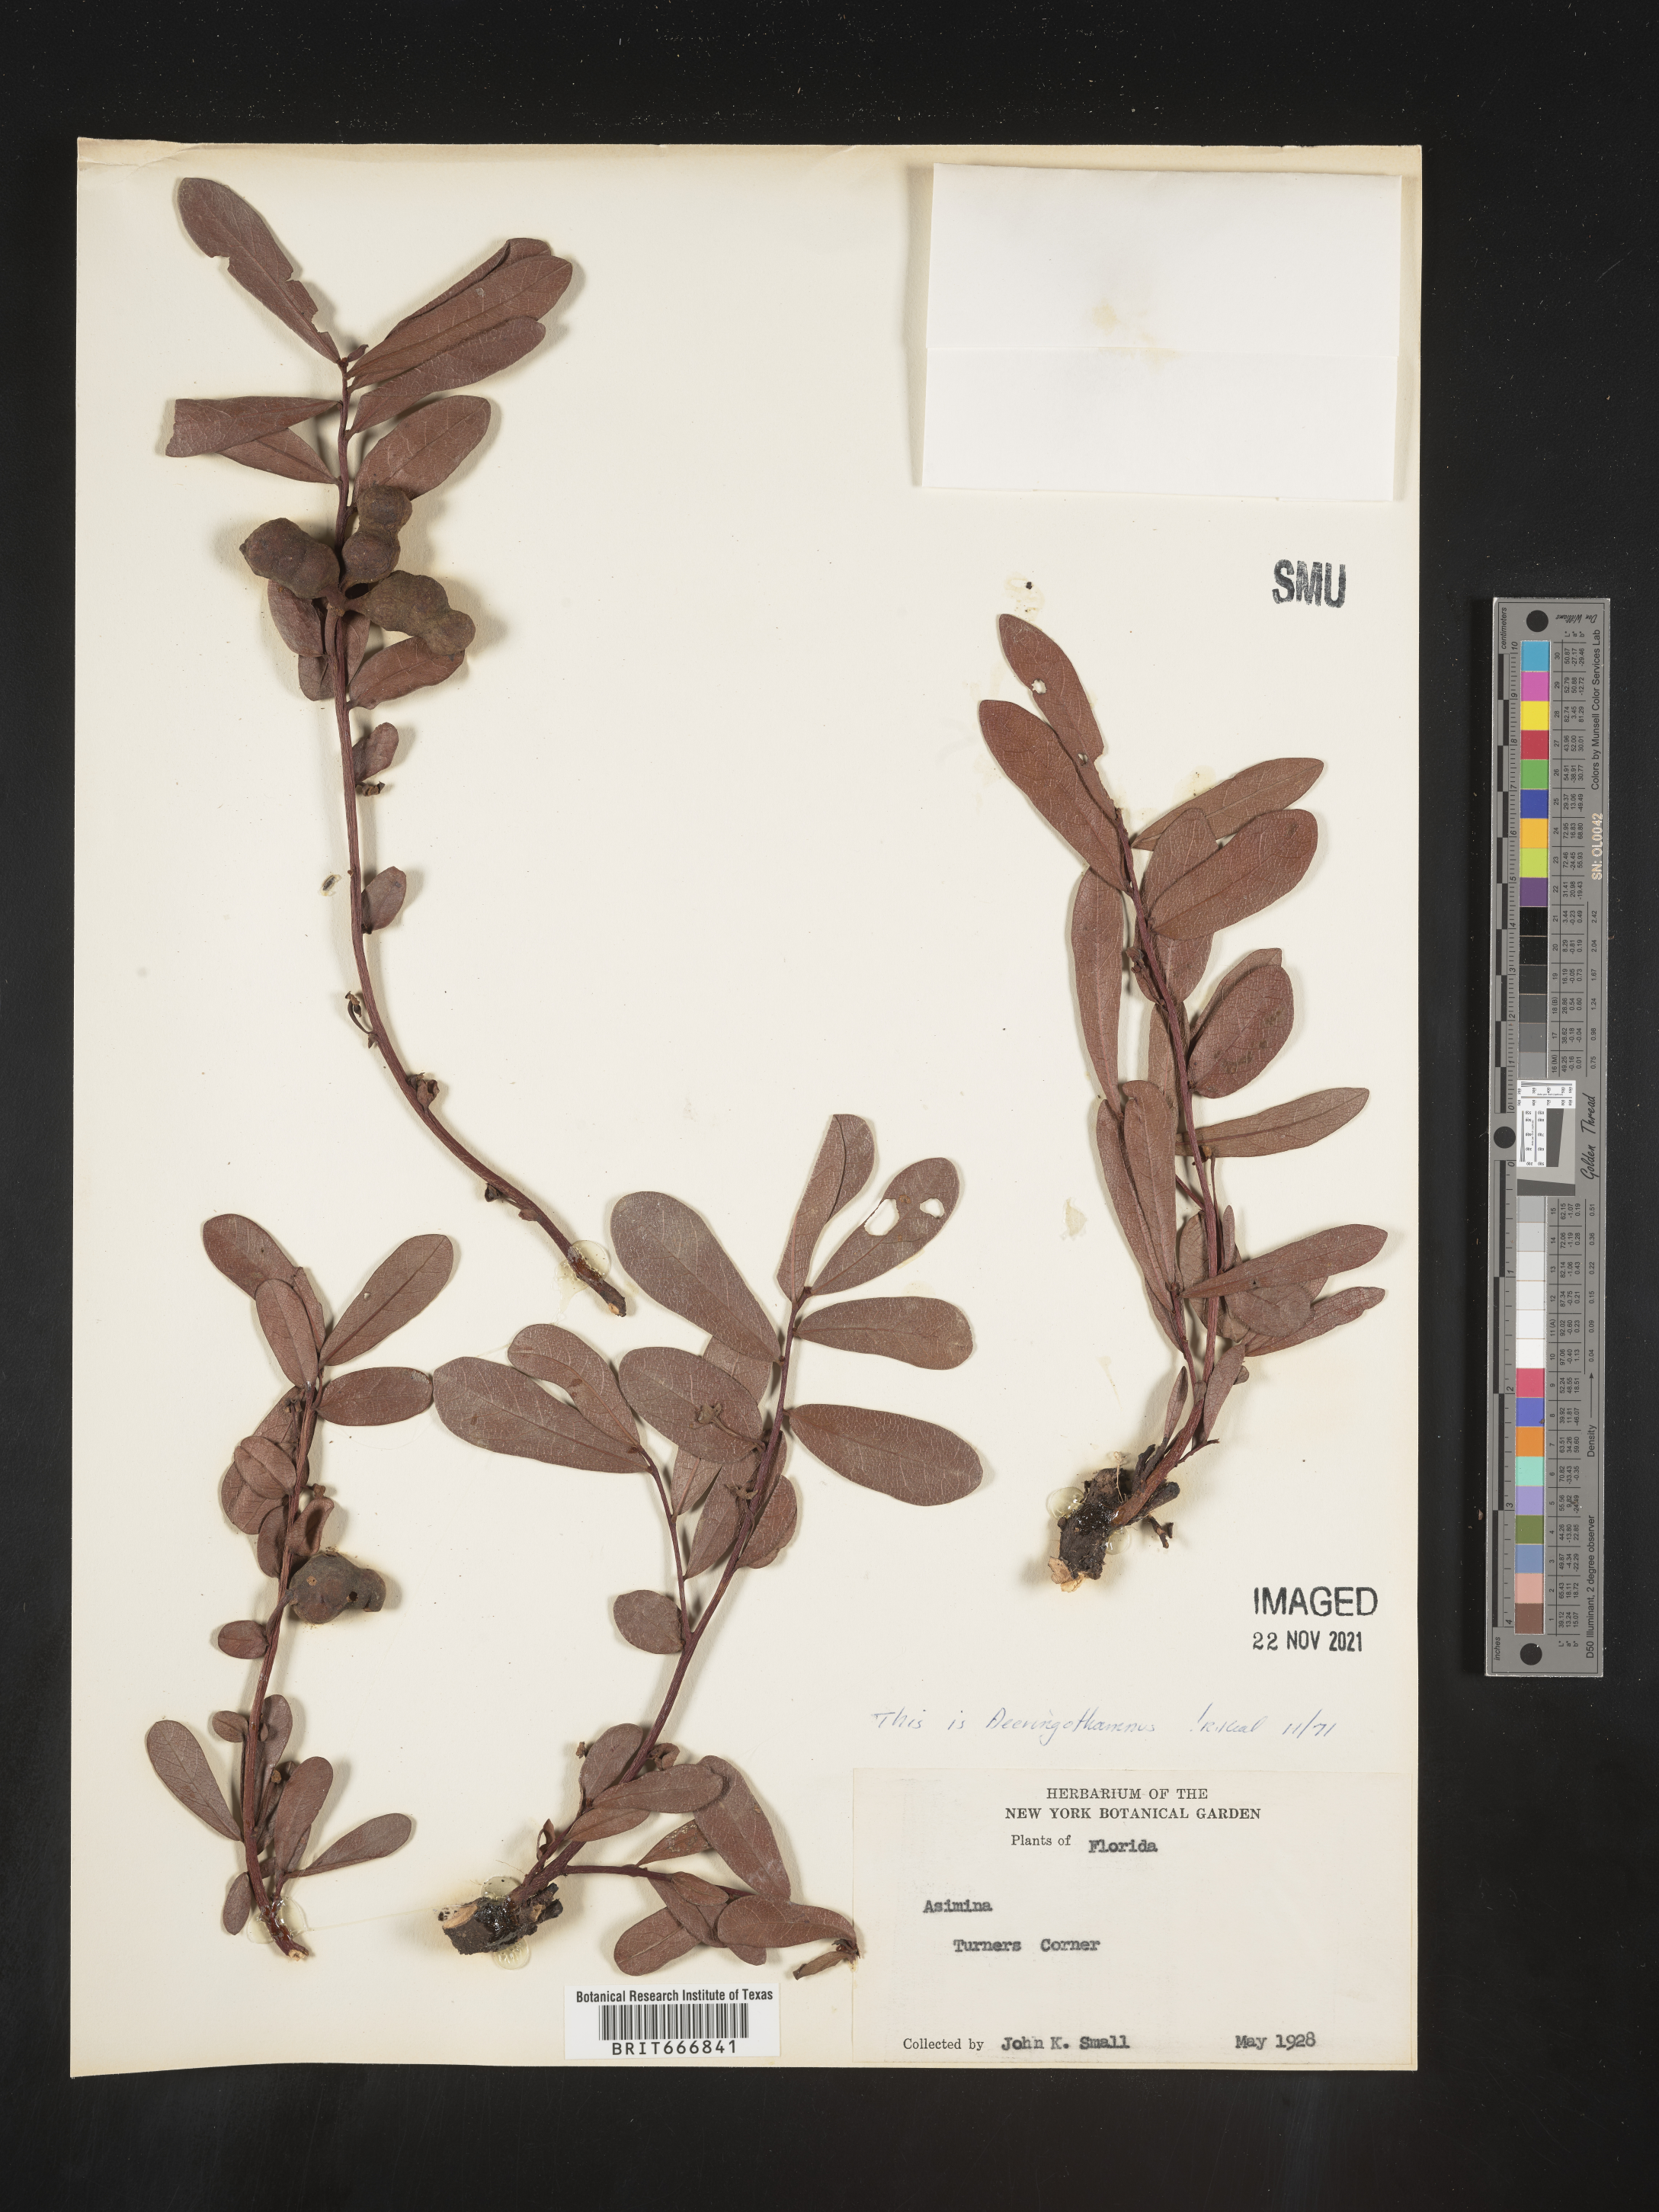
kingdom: Plantae
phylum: Tracheophyta
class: Magnoliopsida
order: Magnoliales
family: Annonaceae
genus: Asimina
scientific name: Asimina triloba
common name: Dog-banana
